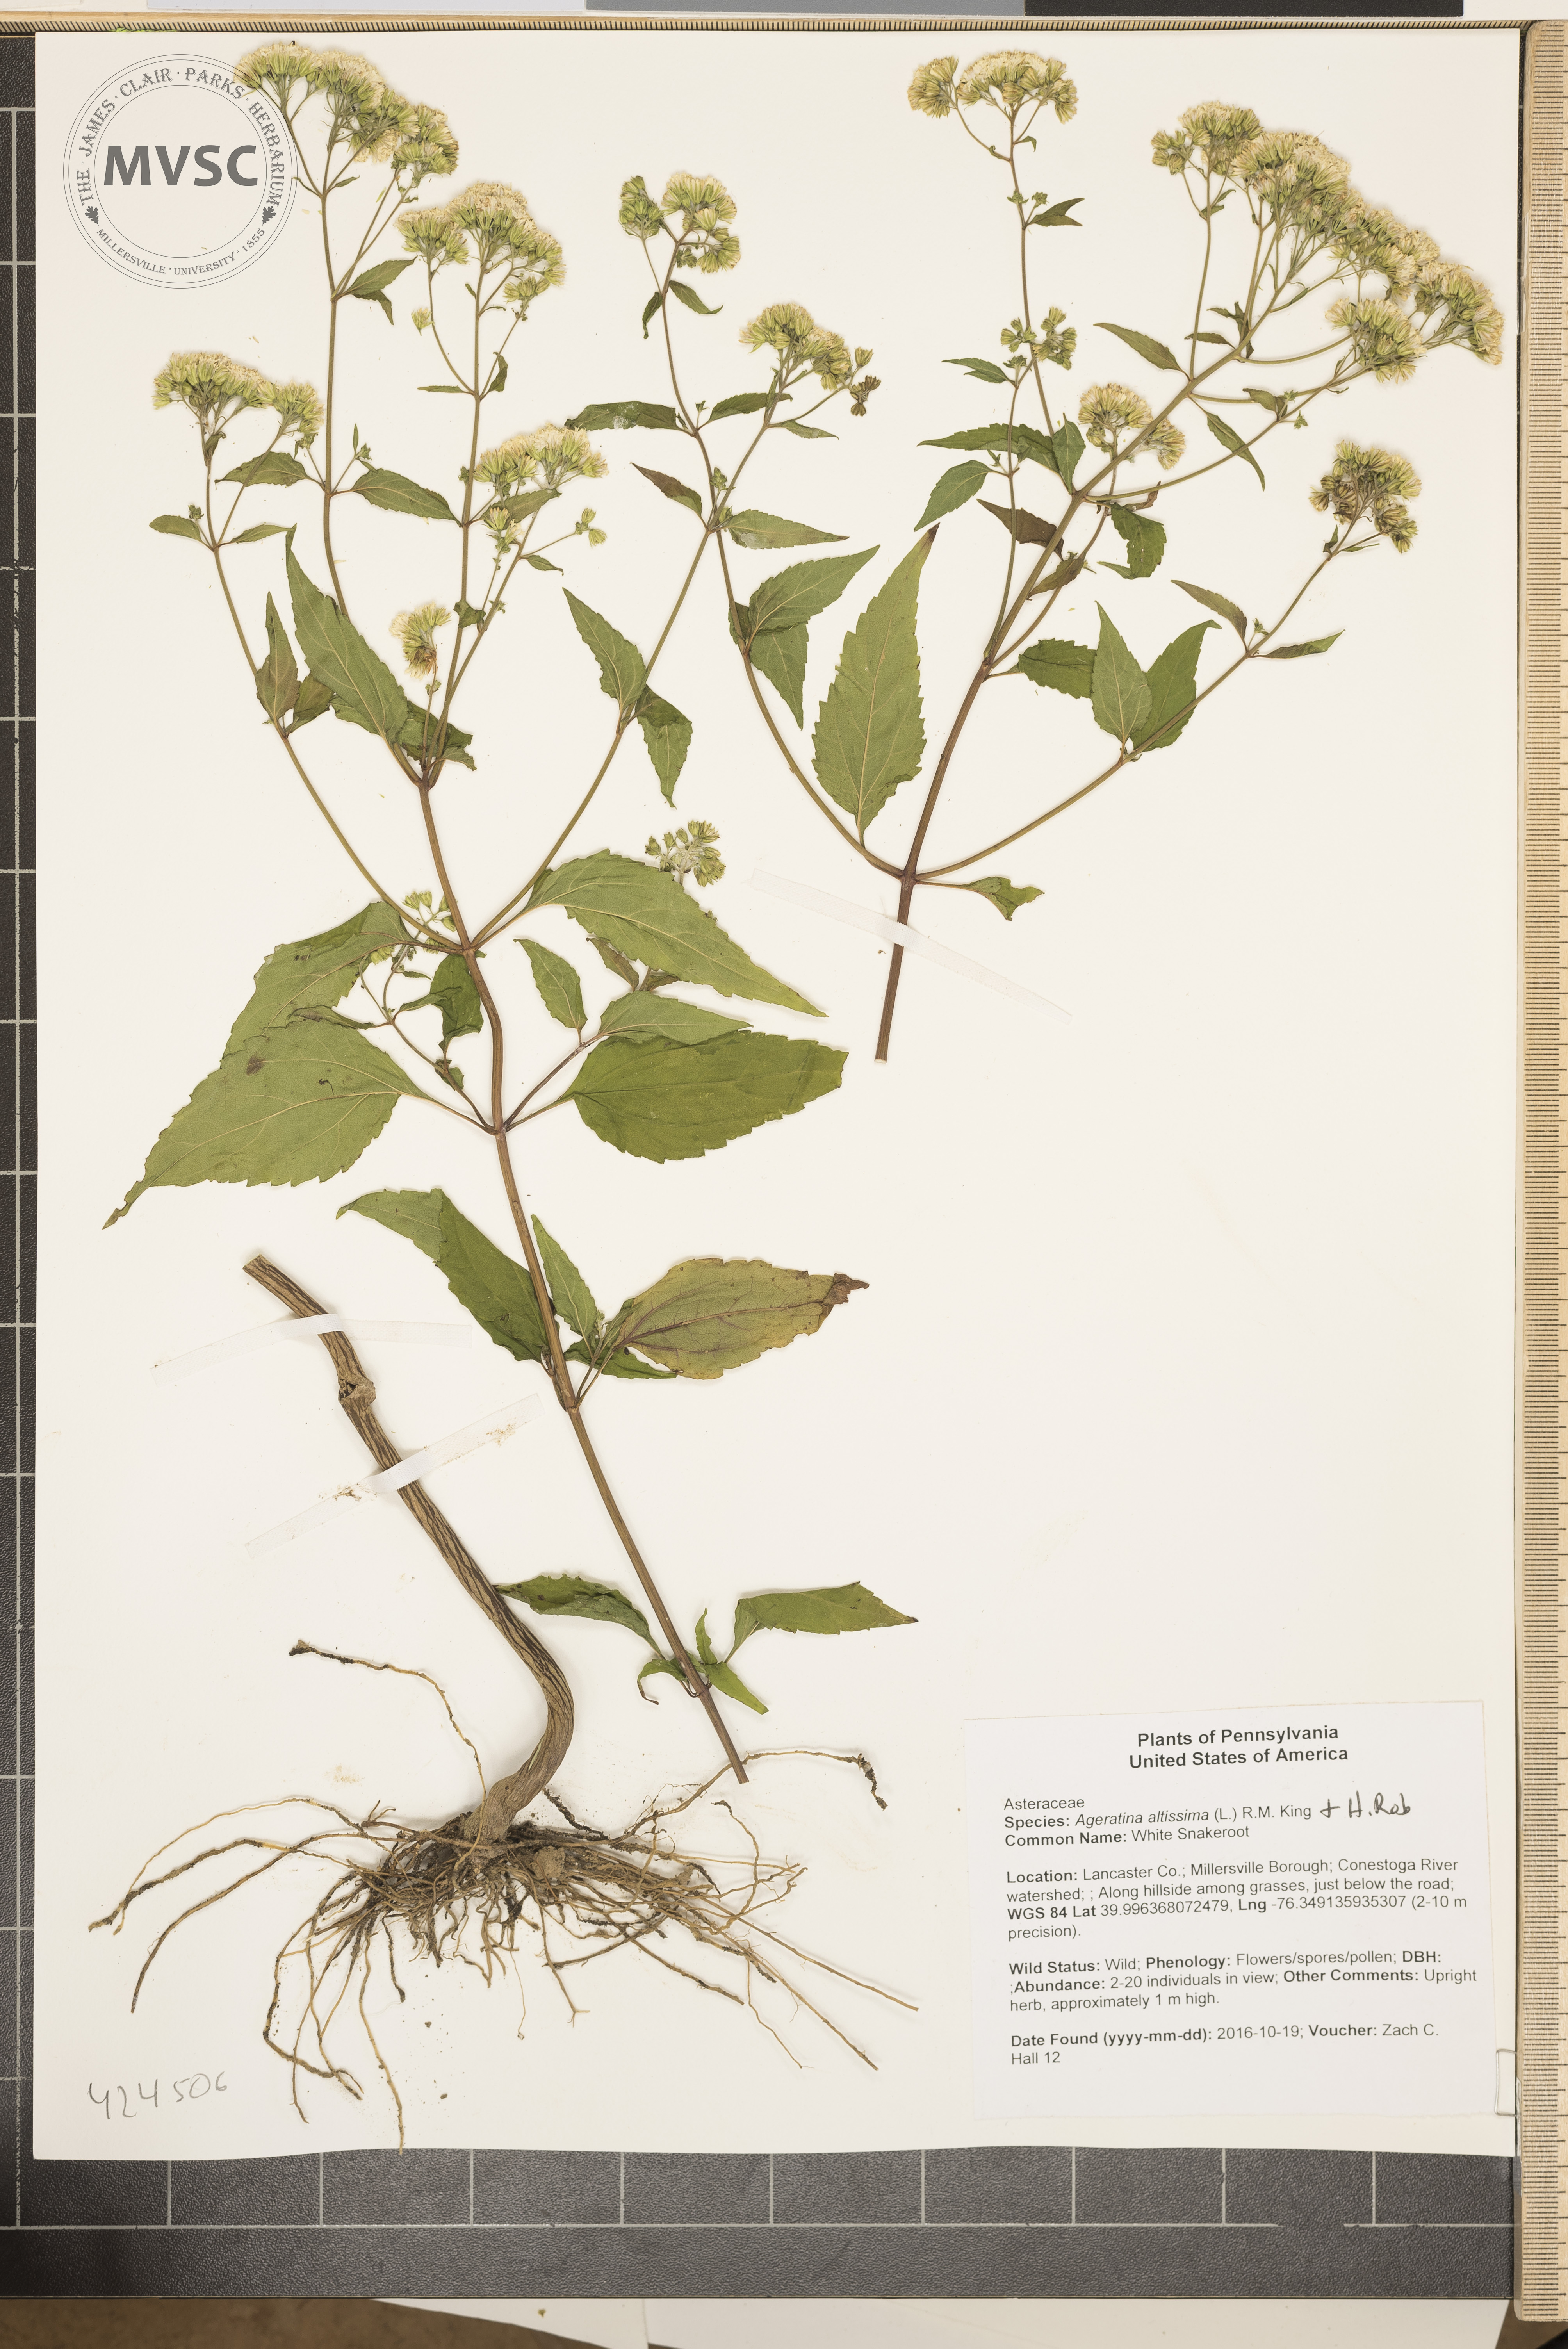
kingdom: Plantae
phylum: Tracheophyta
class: Magnoliopsida
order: Asterales
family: Asteraceae
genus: Ageratina
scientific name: Ageratina altissima
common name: White Snakeroot
